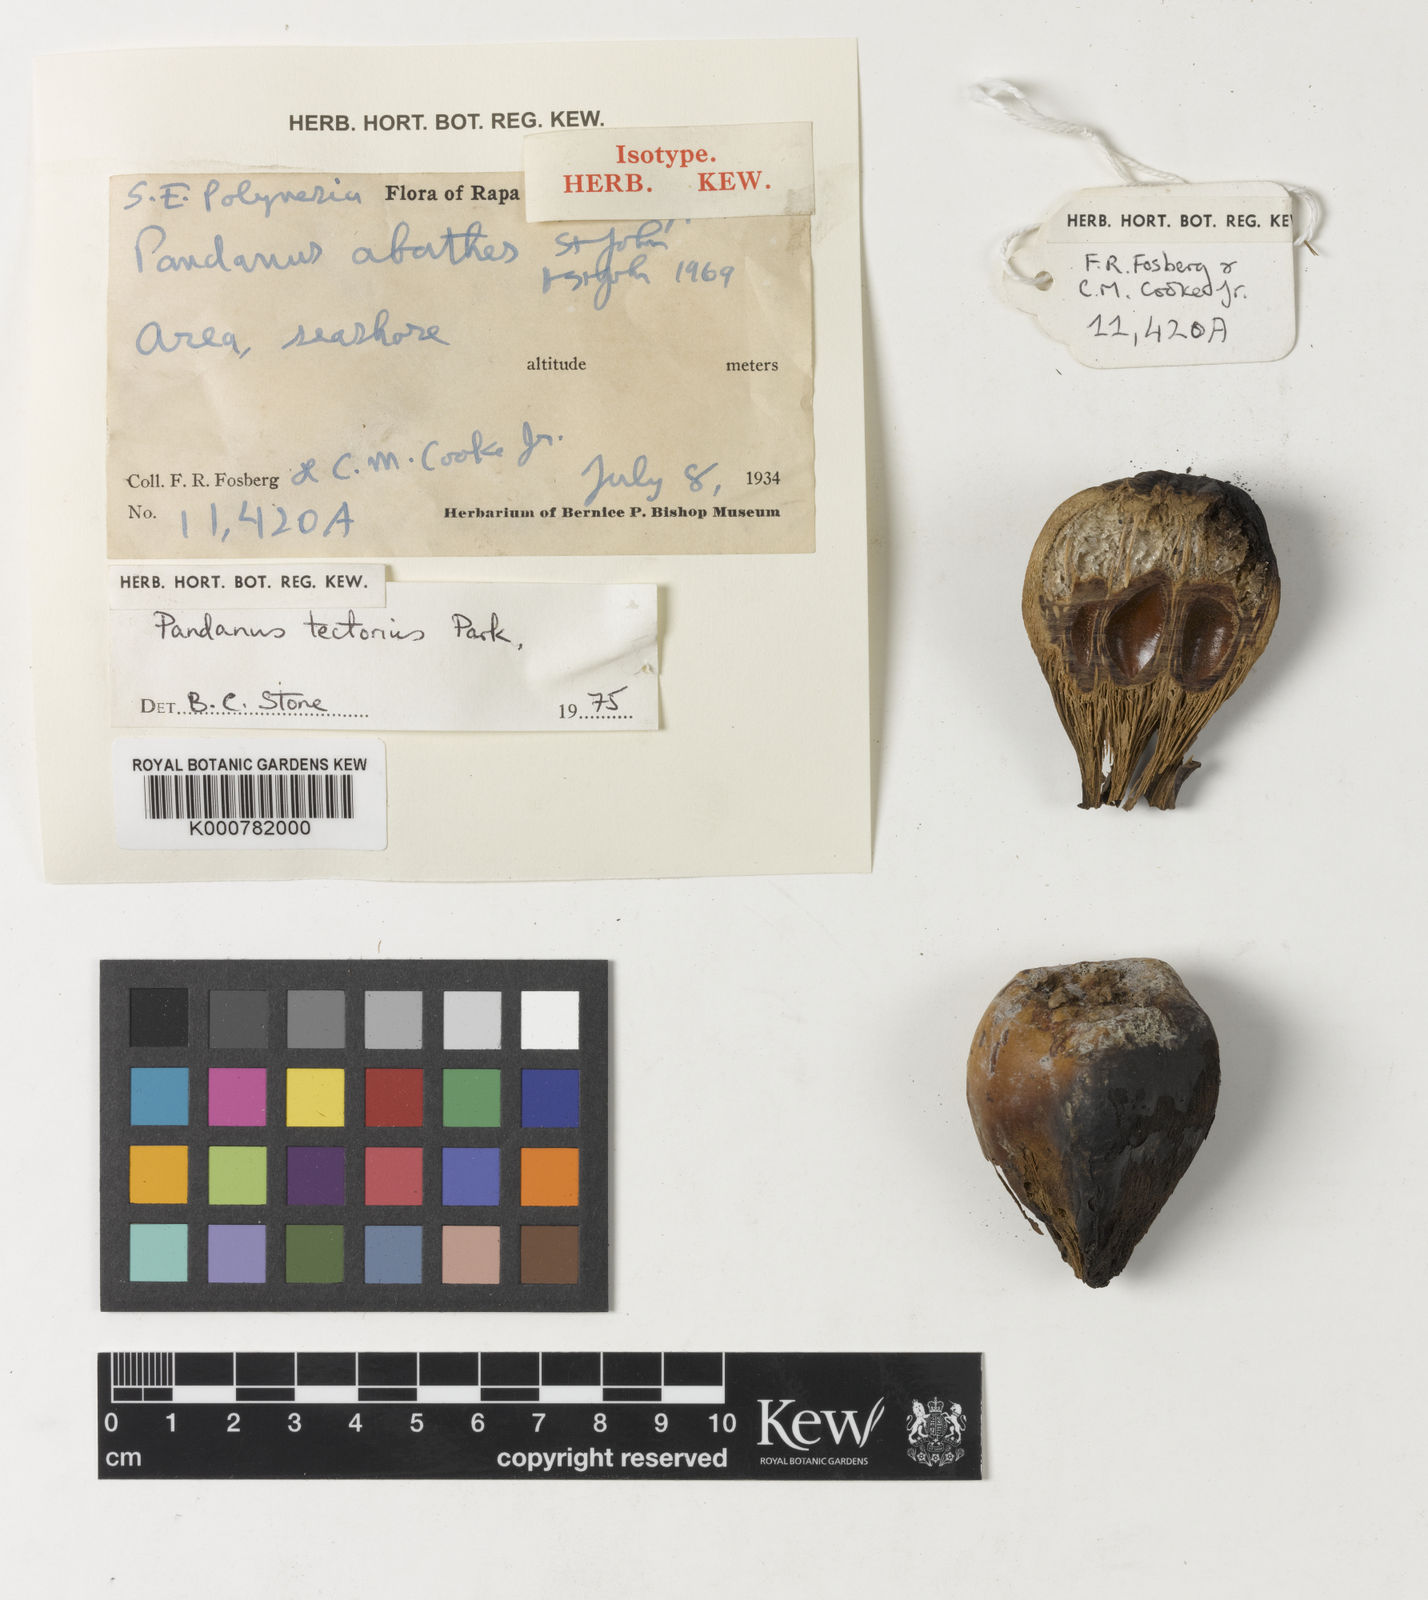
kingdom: Plantae
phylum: Tracheophyta
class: Liliopsida
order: Pandanales
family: Pandanaceae
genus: Pandanus
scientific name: Pandanus
